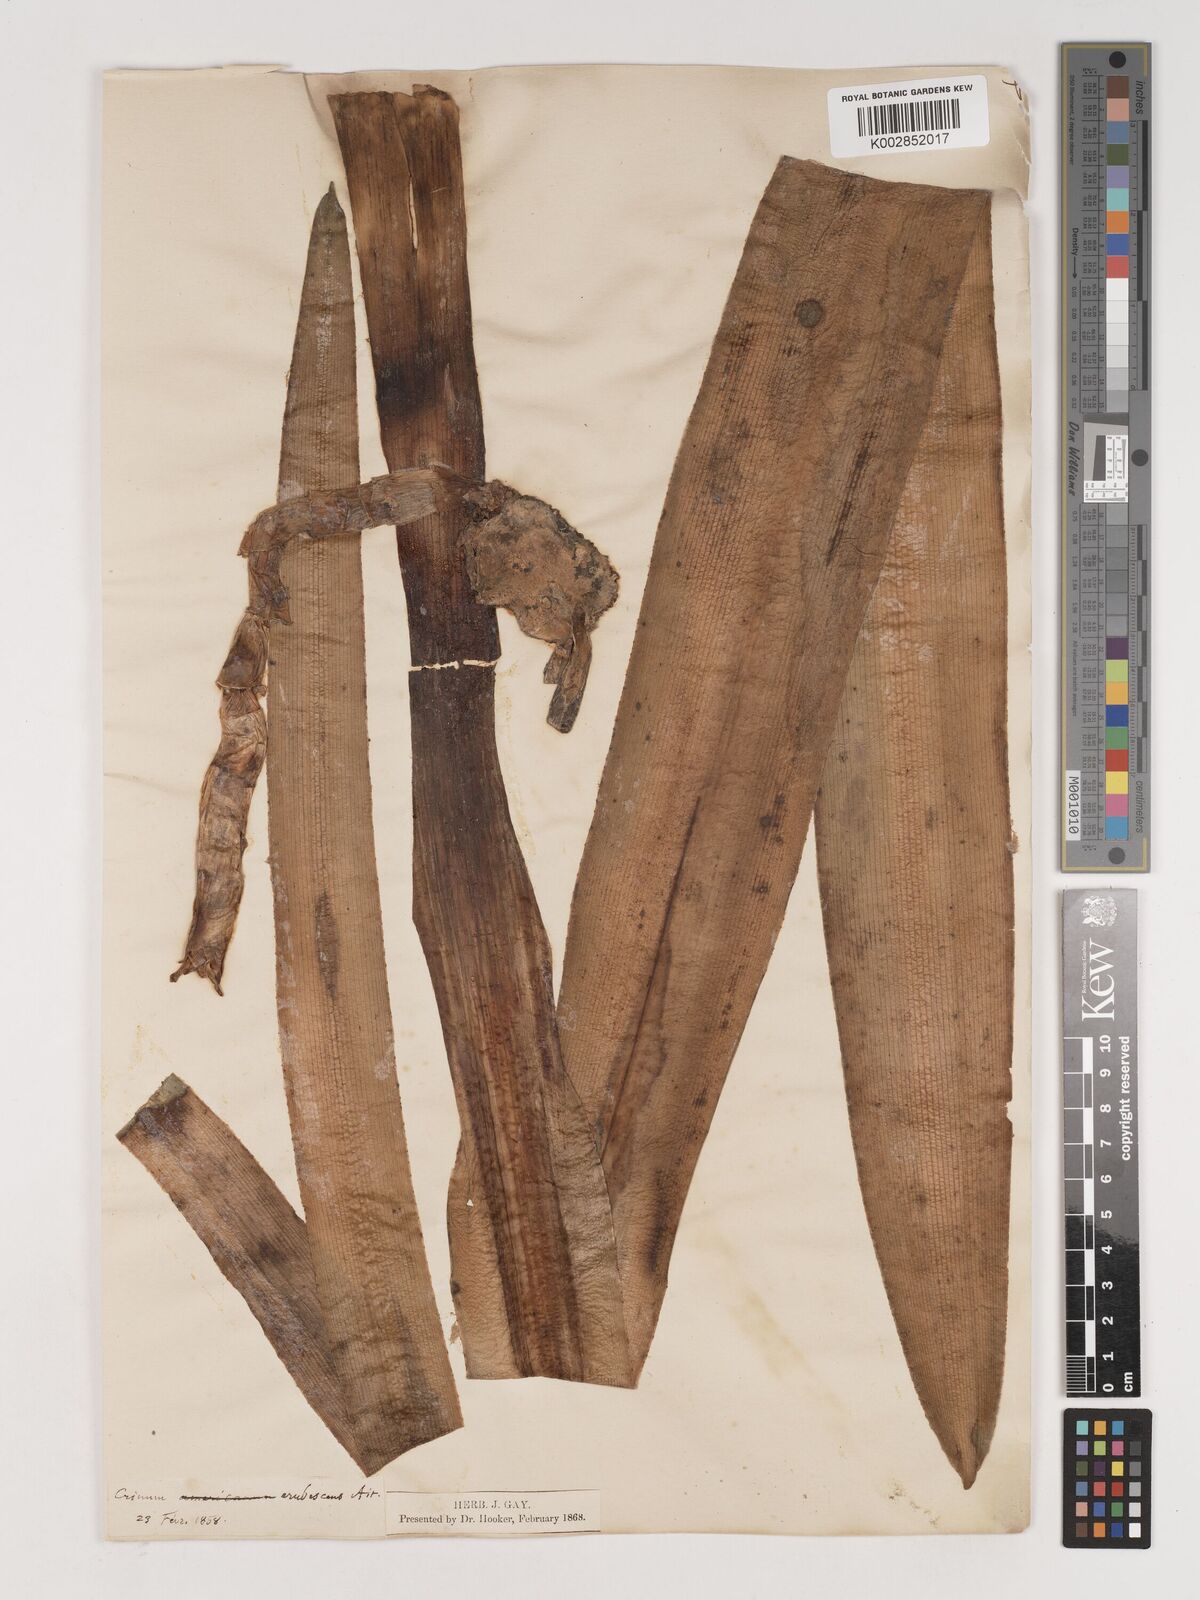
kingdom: Plantae
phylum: Tracheophyta
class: Liliopsida
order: Asparagales
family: Amaryllidaceae
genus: Crinum
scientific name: Crinum erubescens
